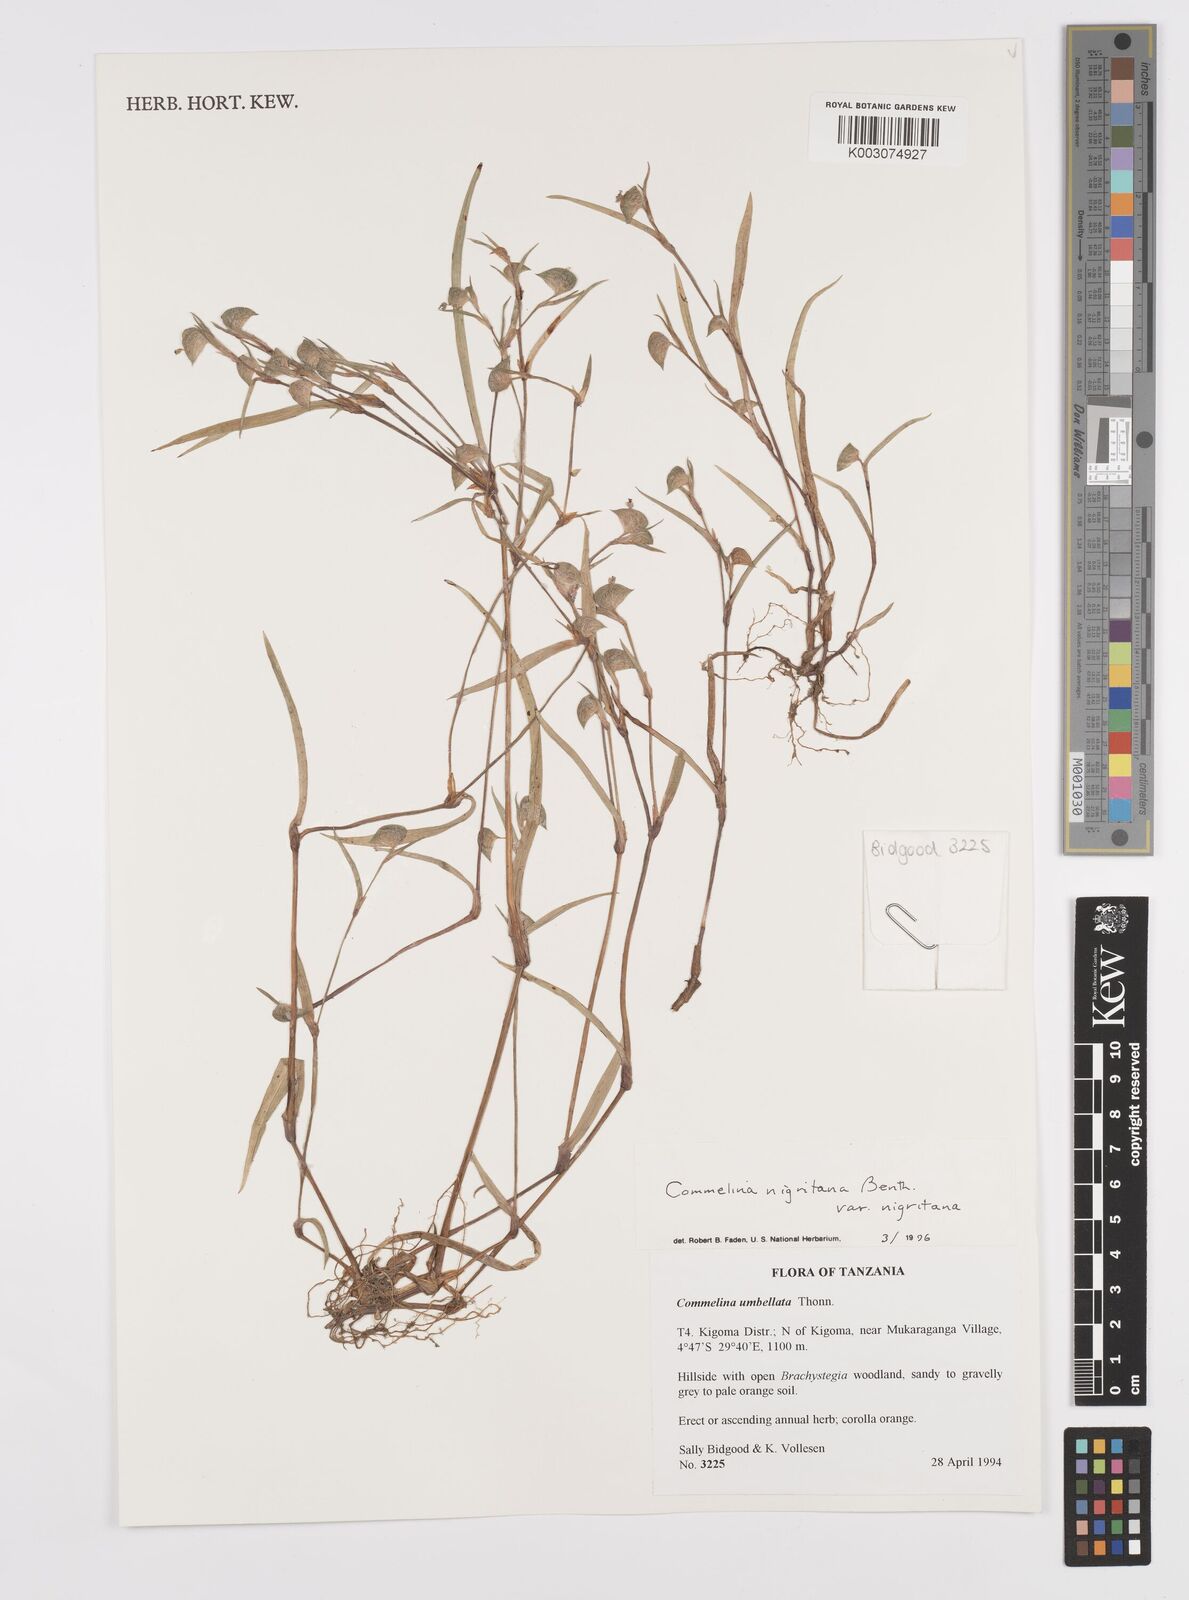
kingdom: Plantae
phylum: Tracheophyta
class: Liliopsida
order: Commelinales
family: Commelinaceae
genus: Commelina
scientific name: Commelina nigritana
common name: African dayflower
